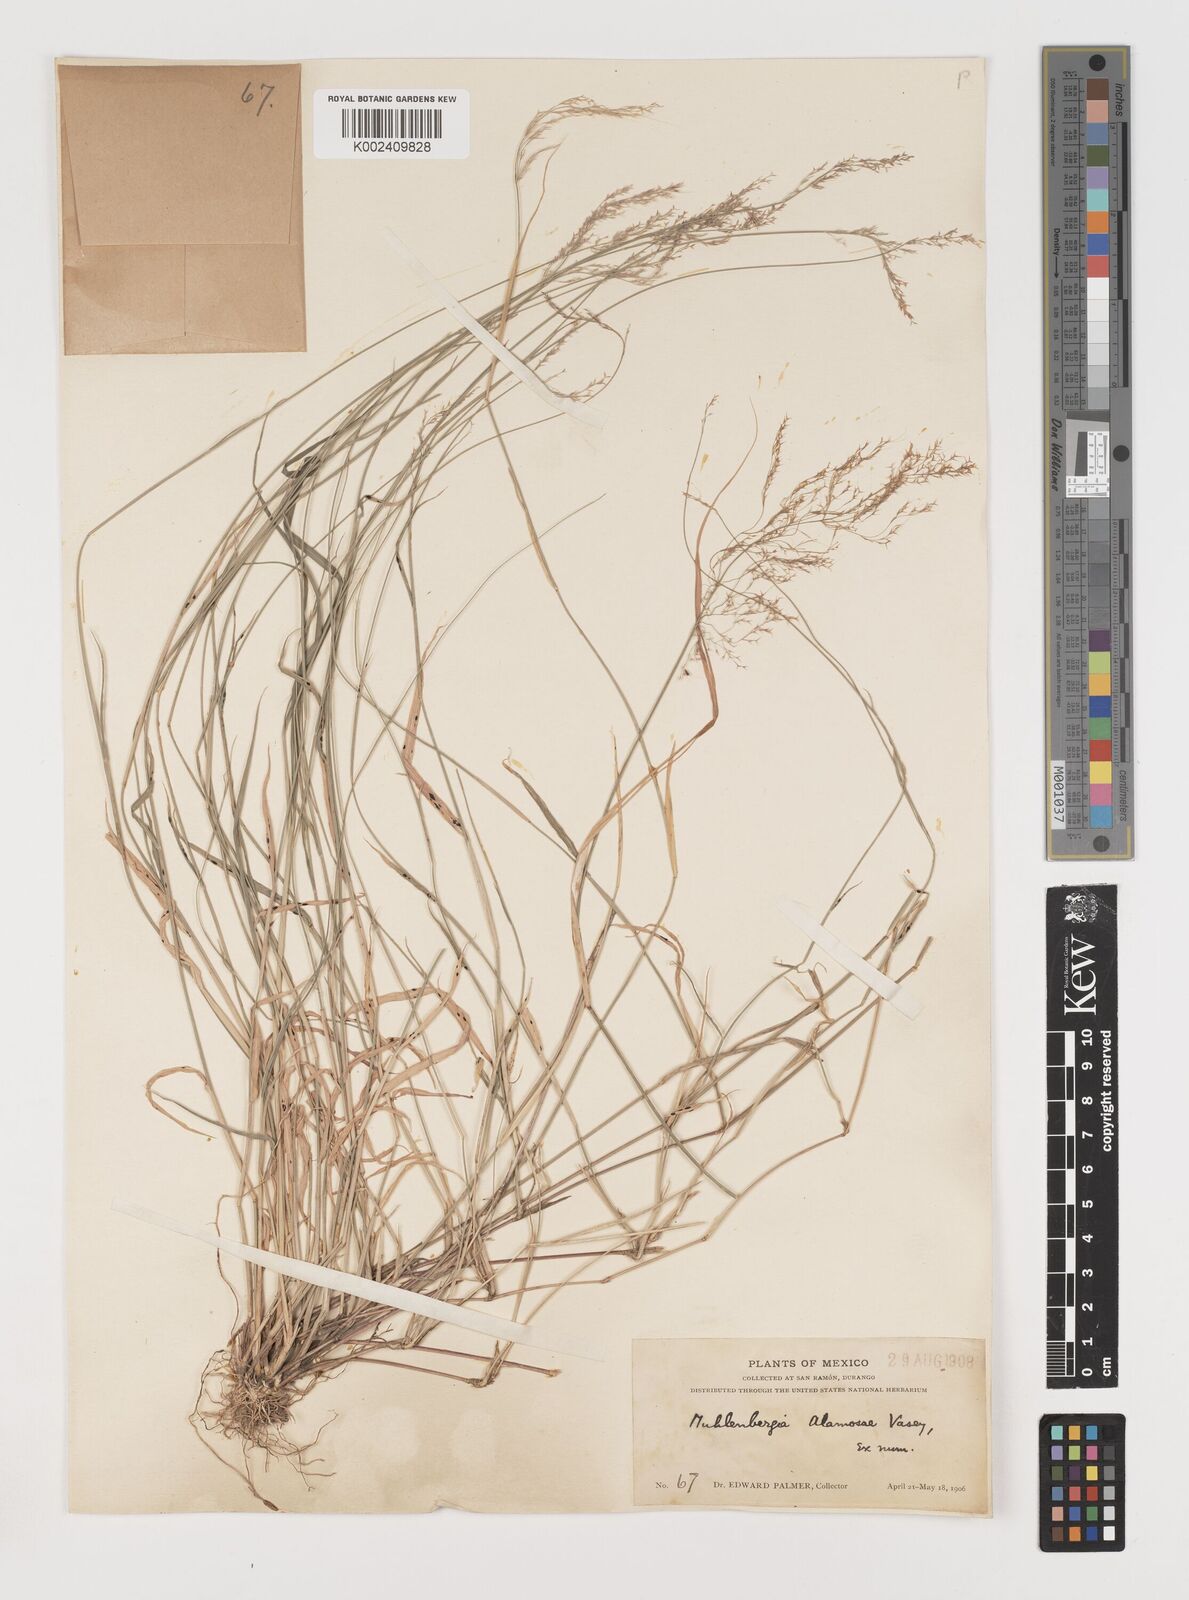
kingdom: Plantae
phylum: Tracheophyta
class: Liliopsida
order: Poales
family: Poaceae
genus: Muhlenbergia
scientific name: Muhlenbergia alamosae
